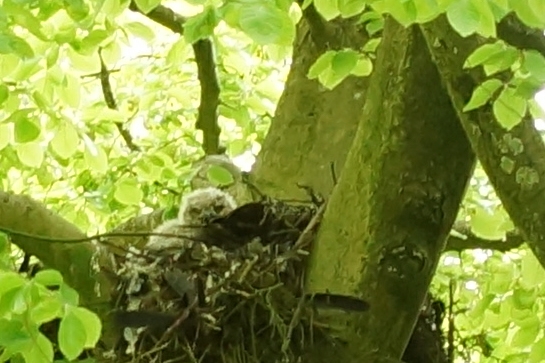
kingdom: Animalia
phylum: Chordata
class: Aves
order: Strigiformes
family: Strigidae
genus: Bubo
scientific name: Bubo bubo
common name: Stor hornugle
